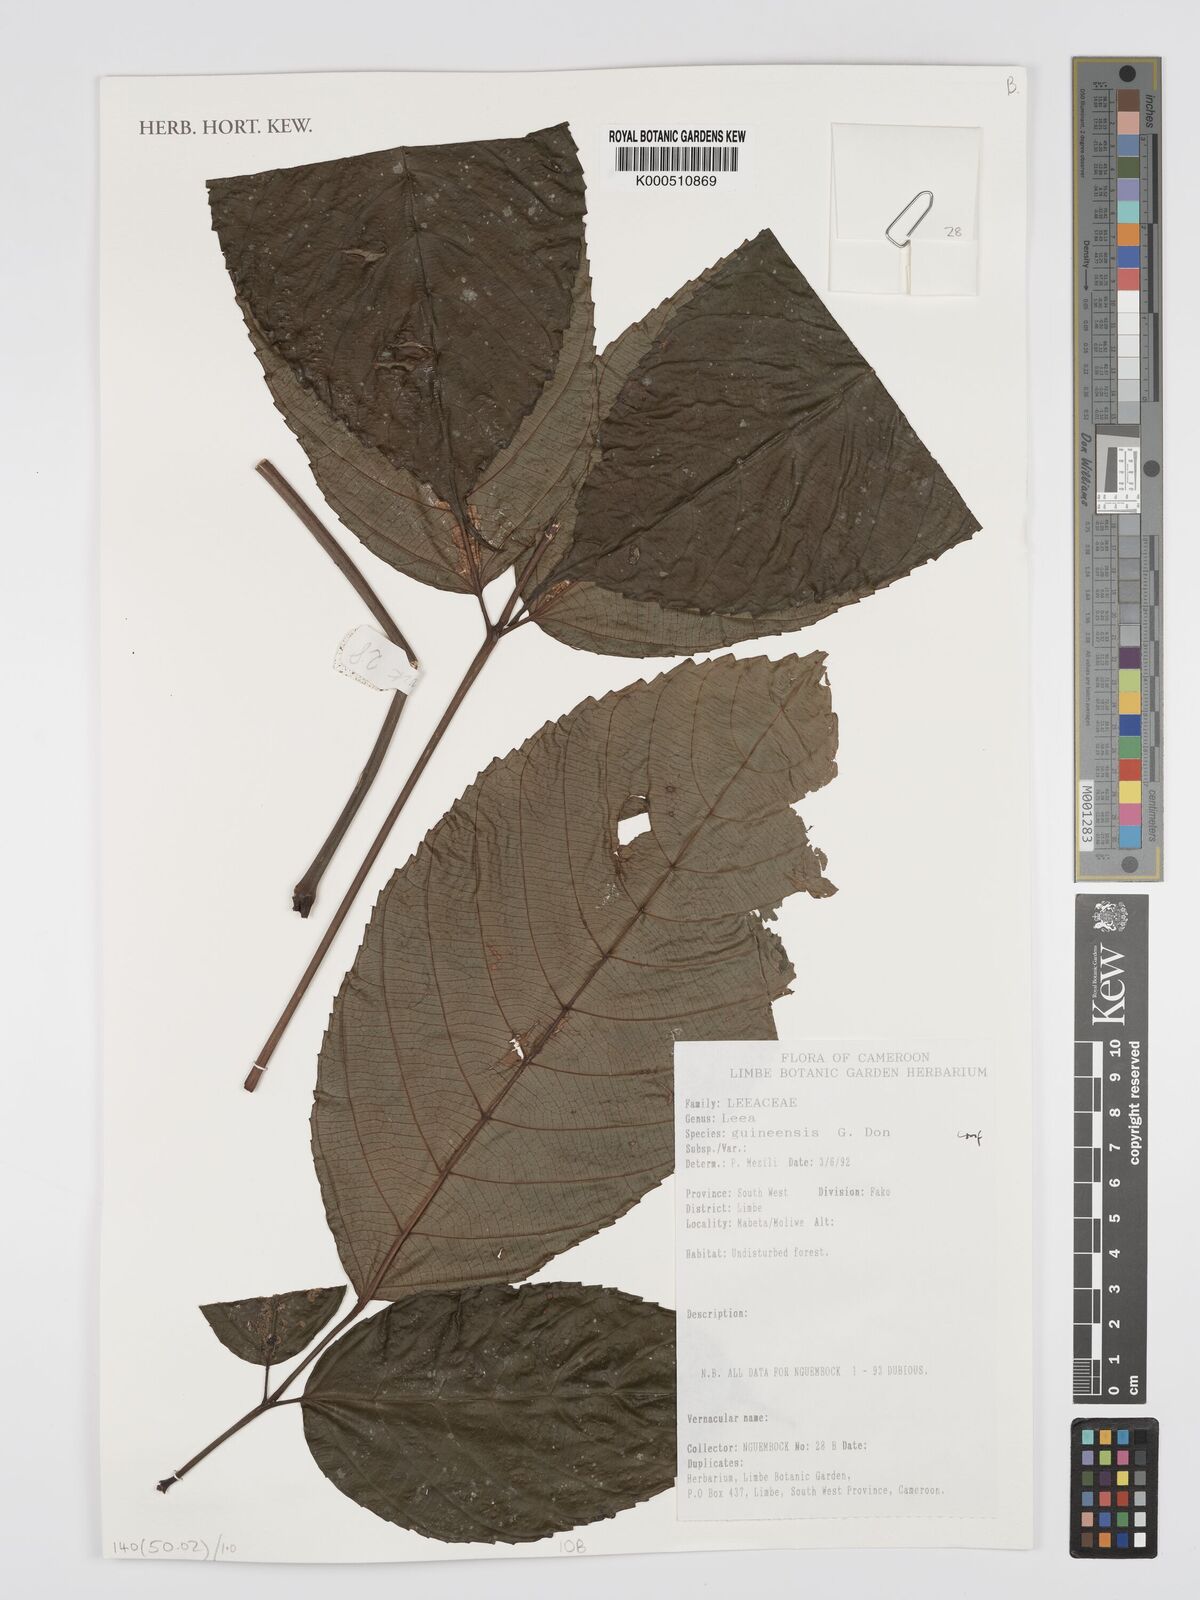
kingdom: Plantae
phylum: Tracheophyta
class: Magnoliopsida
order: Vitales
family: Vitaceae
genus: Leea
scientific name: Leea guineensis
